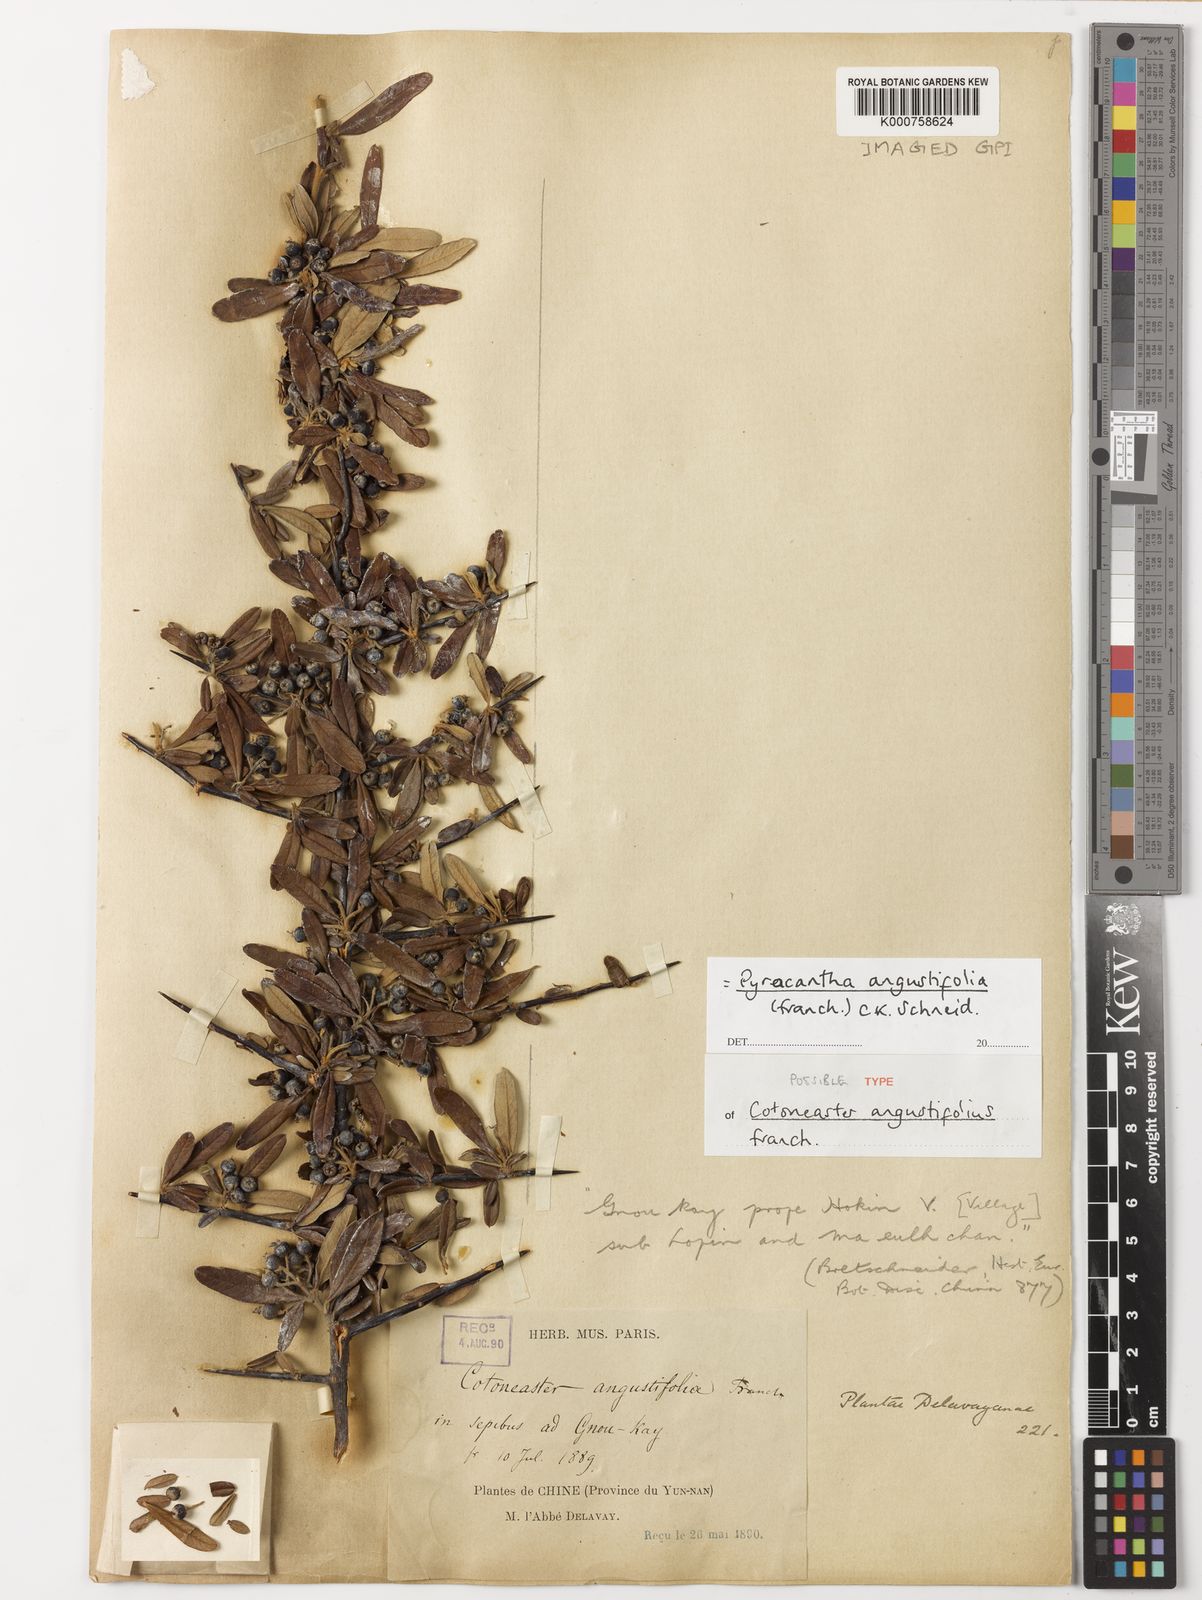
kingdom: Plantae
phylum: Tracheophyta
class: Magnoliopsida
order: Rosales
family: Rosaceae
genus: Pyracantha
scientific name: Pyracantha angustifolia
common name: Narrowleaf firethorn
